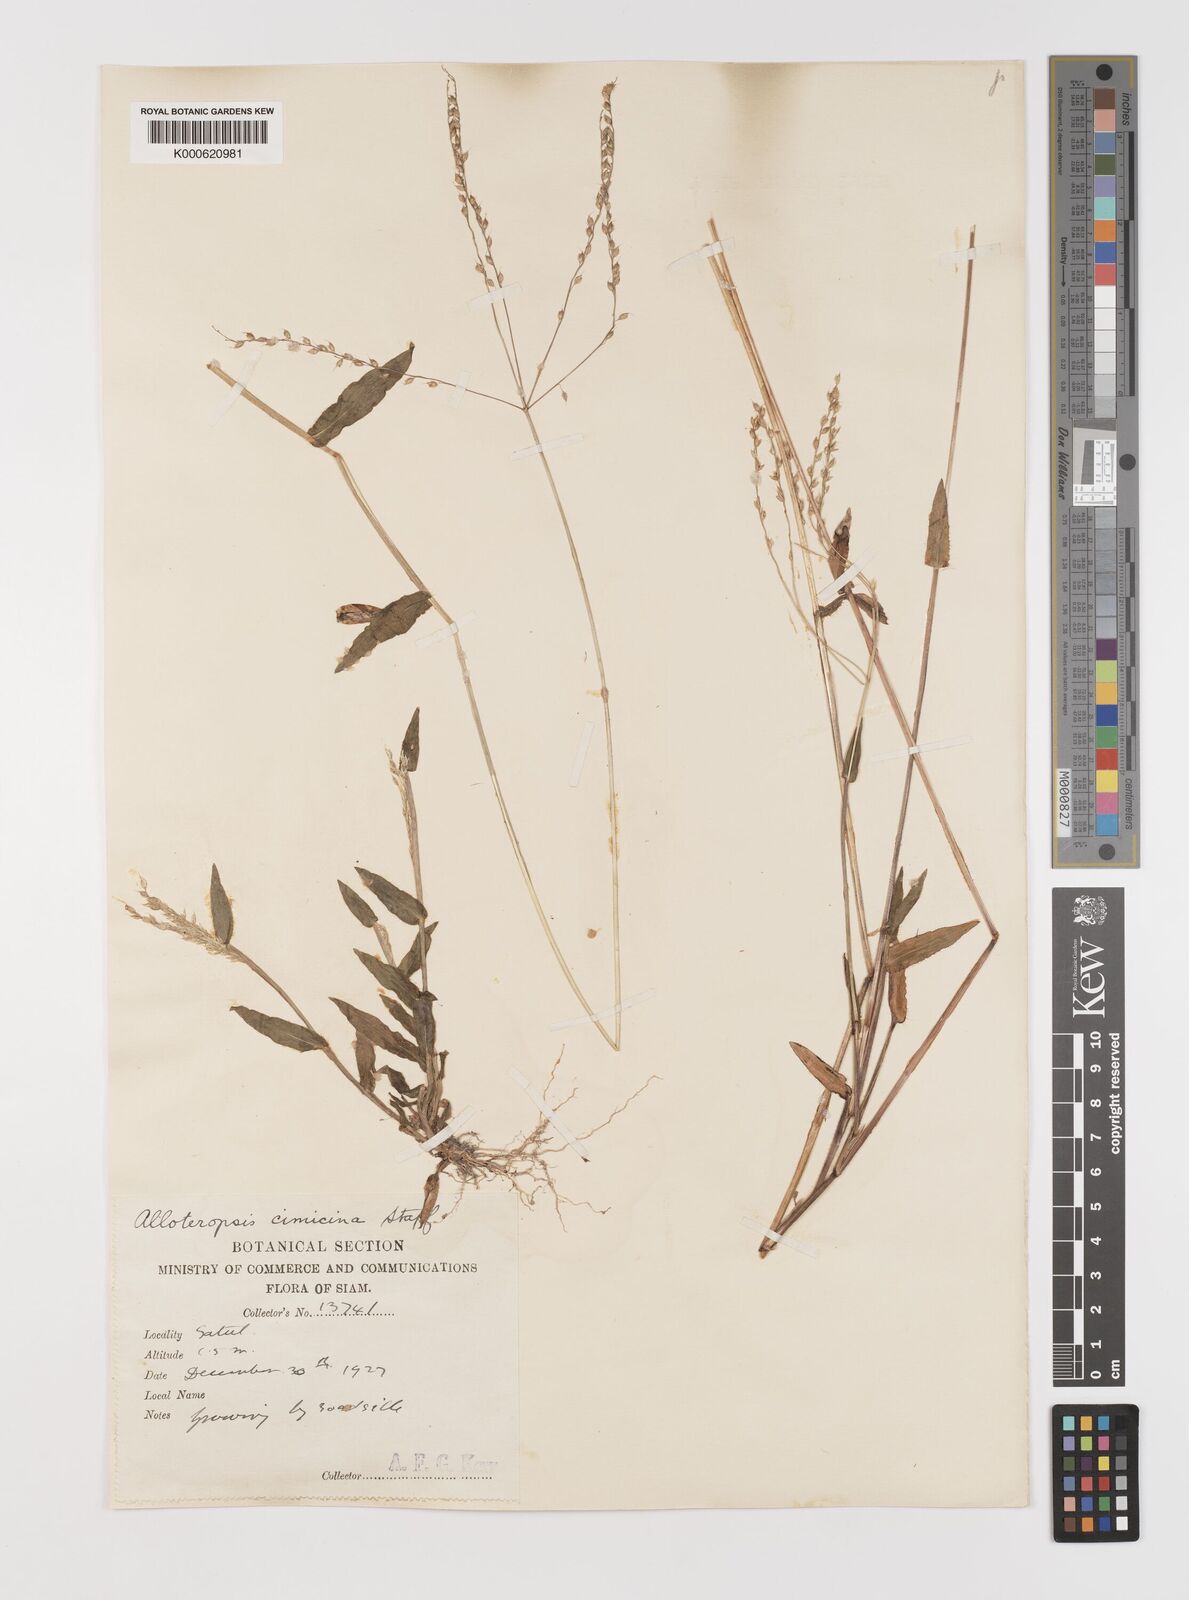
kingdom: Plantae
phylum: Tracheophyta
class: Liliopsida
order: Poales
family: Poaceae
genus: Alloteropsis
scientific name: Alloteropsis cimicina
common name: Summergrass
